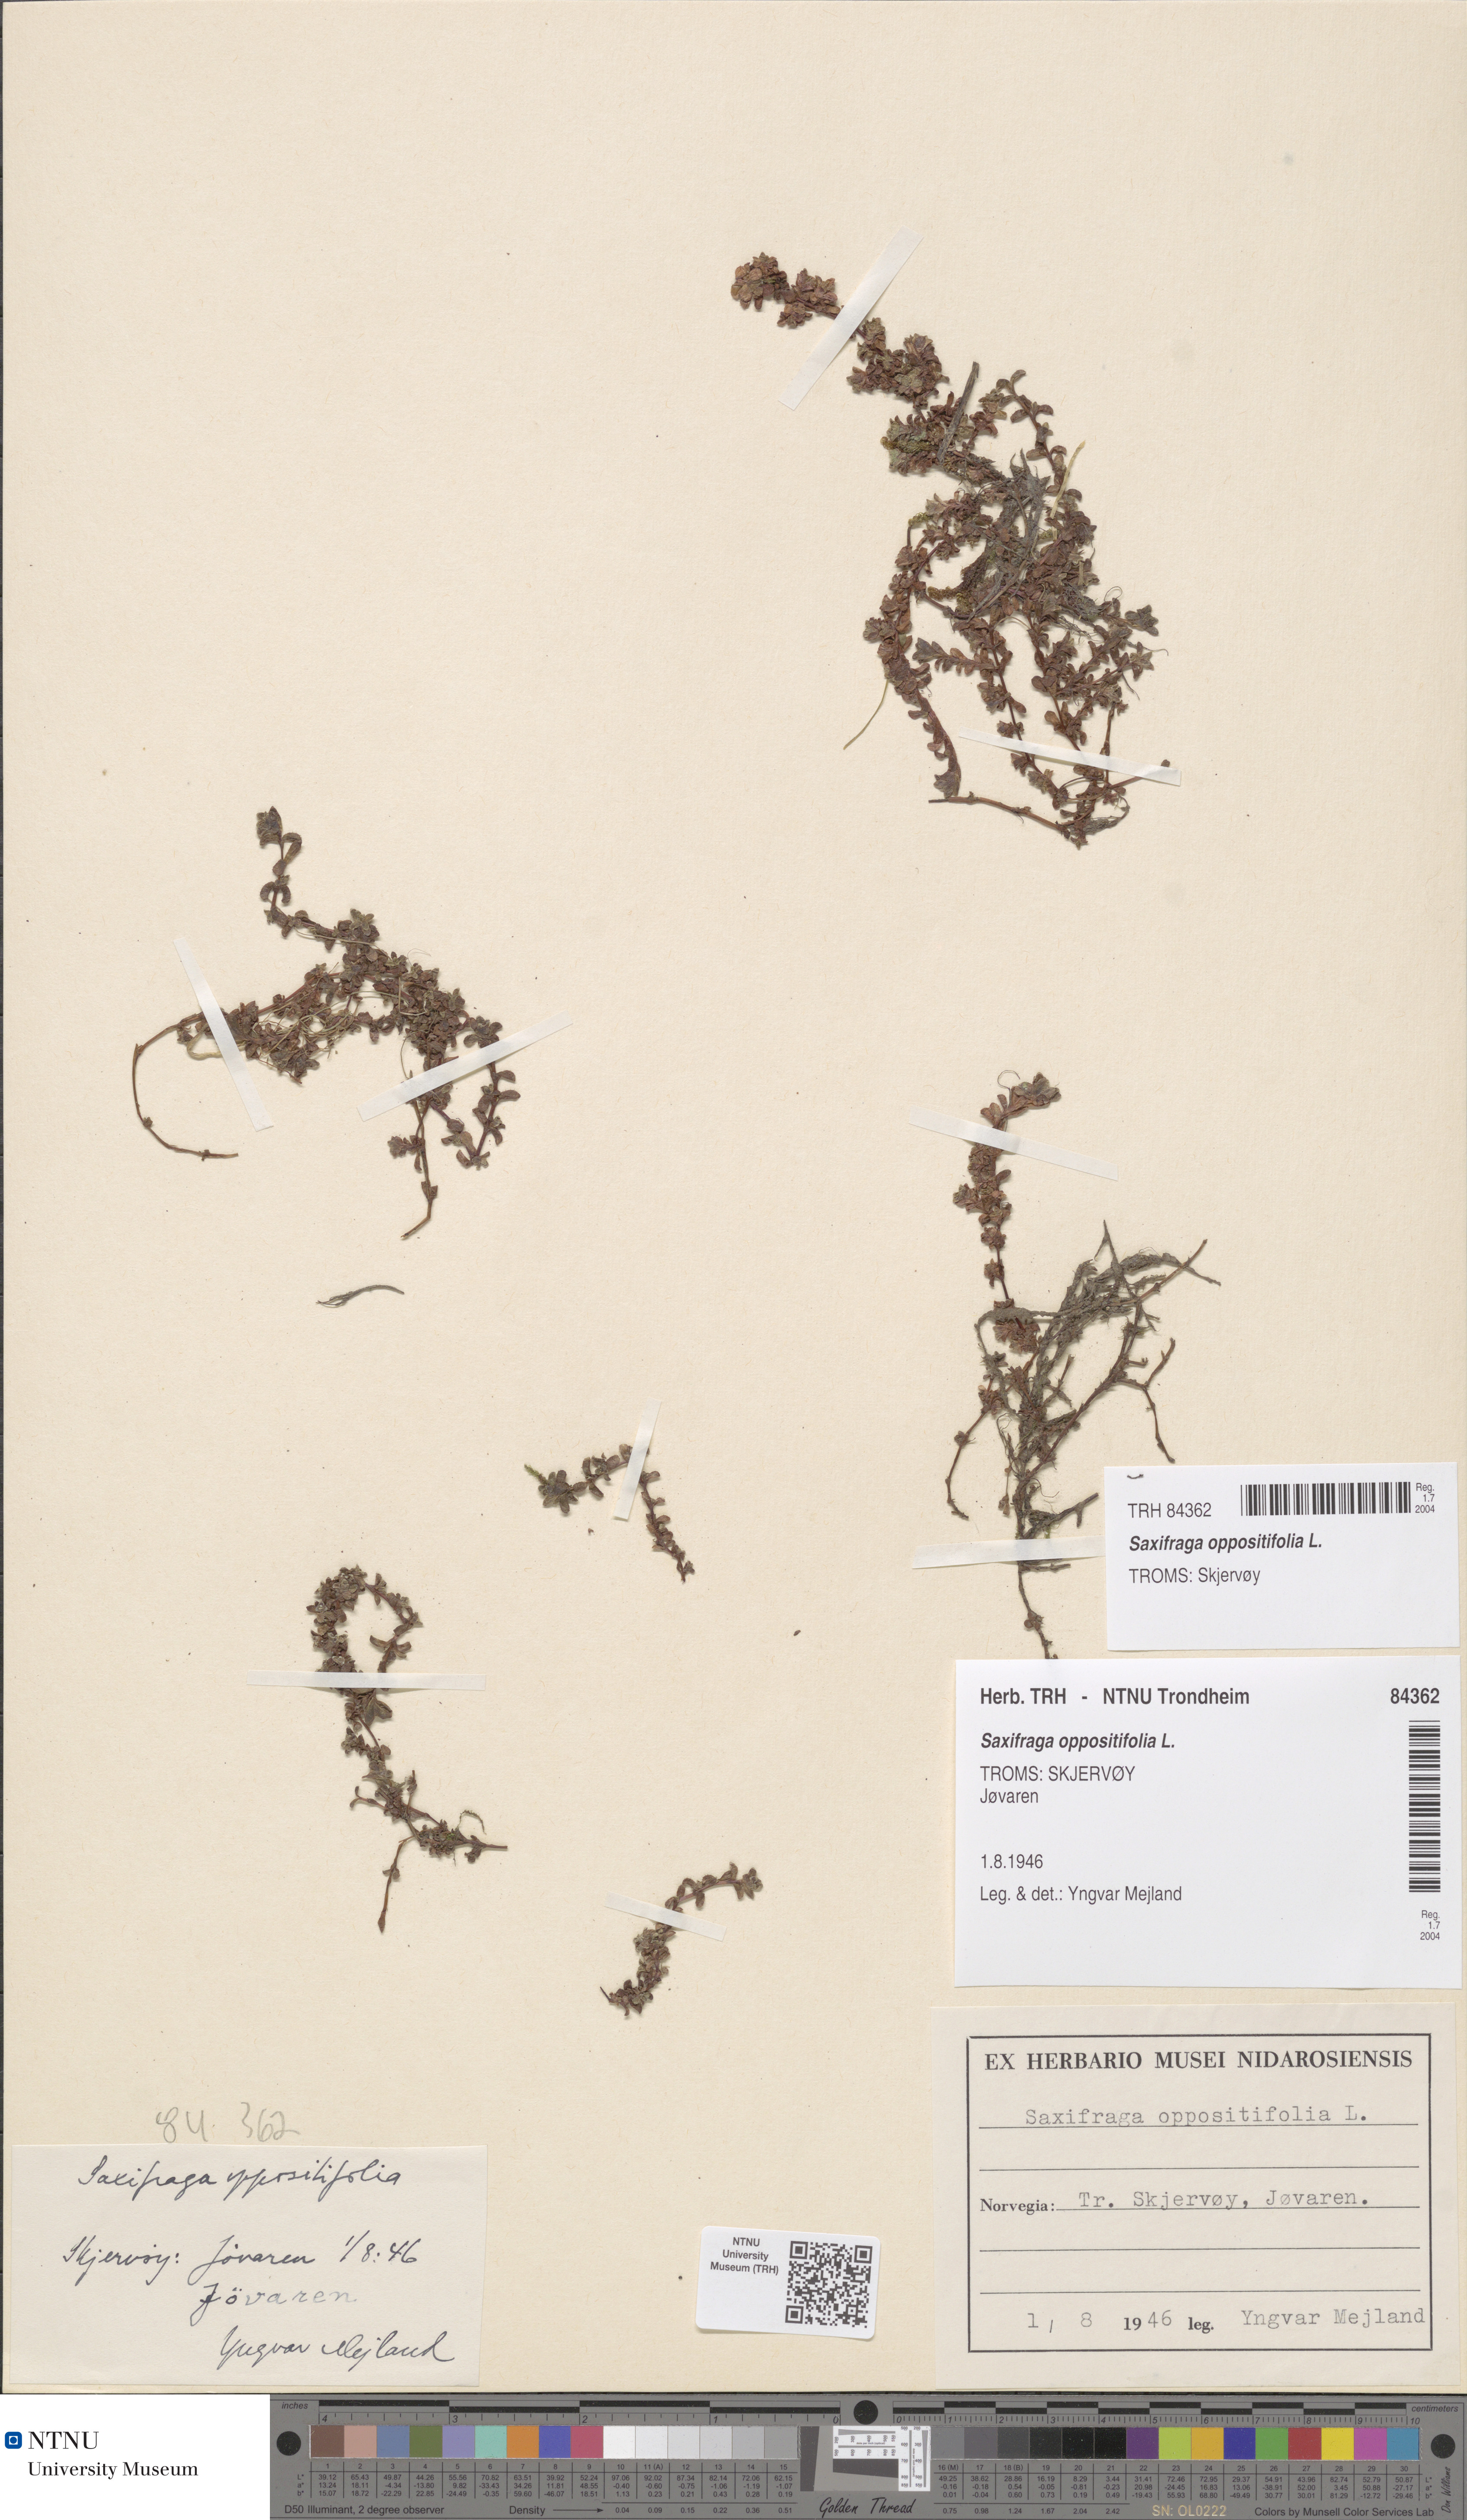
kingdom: Plantae
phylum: Tracheophyta
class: Magnoliopsida
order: Saxifragales
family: Saxifragaceae
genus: Saxifraga
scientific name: Saxifraga oppositifolia
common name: Purple saxifrage
